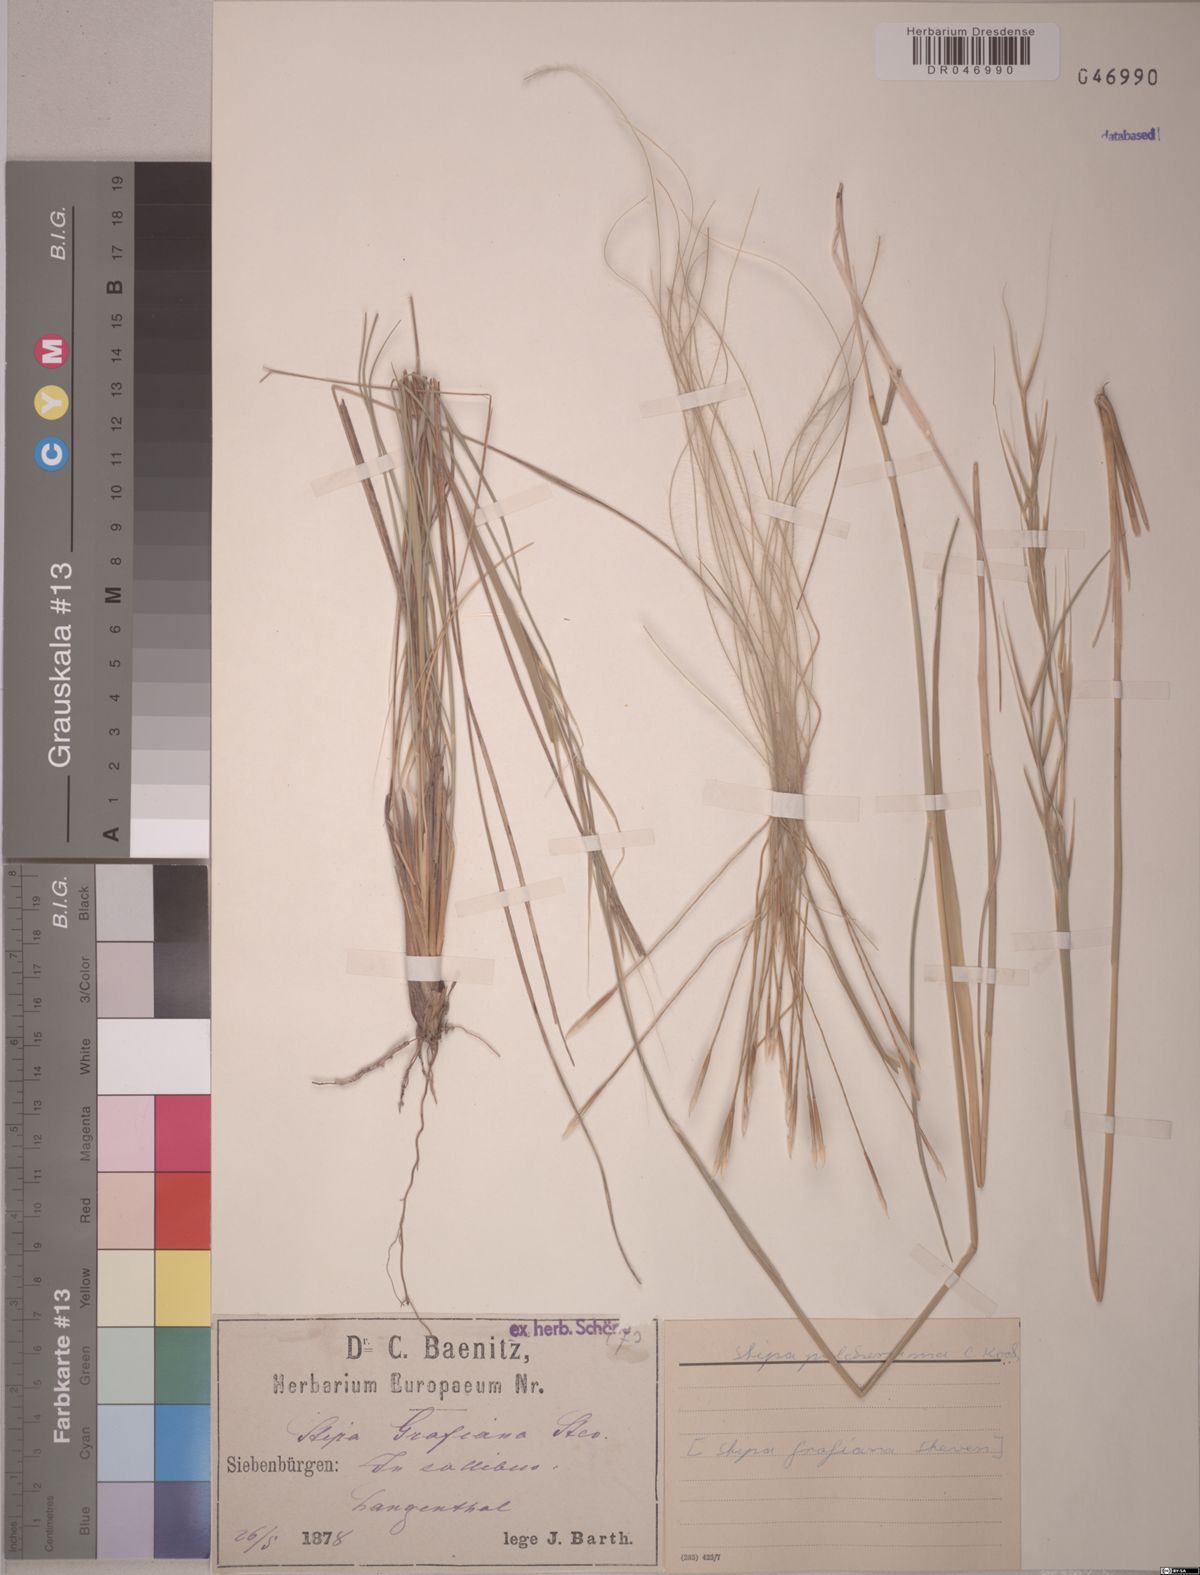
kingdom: Plantae
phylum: Tracheophyta
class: Liliopsida
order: Poales
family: Poaceae
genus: Stipa
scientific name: Stipa pulcherrima
